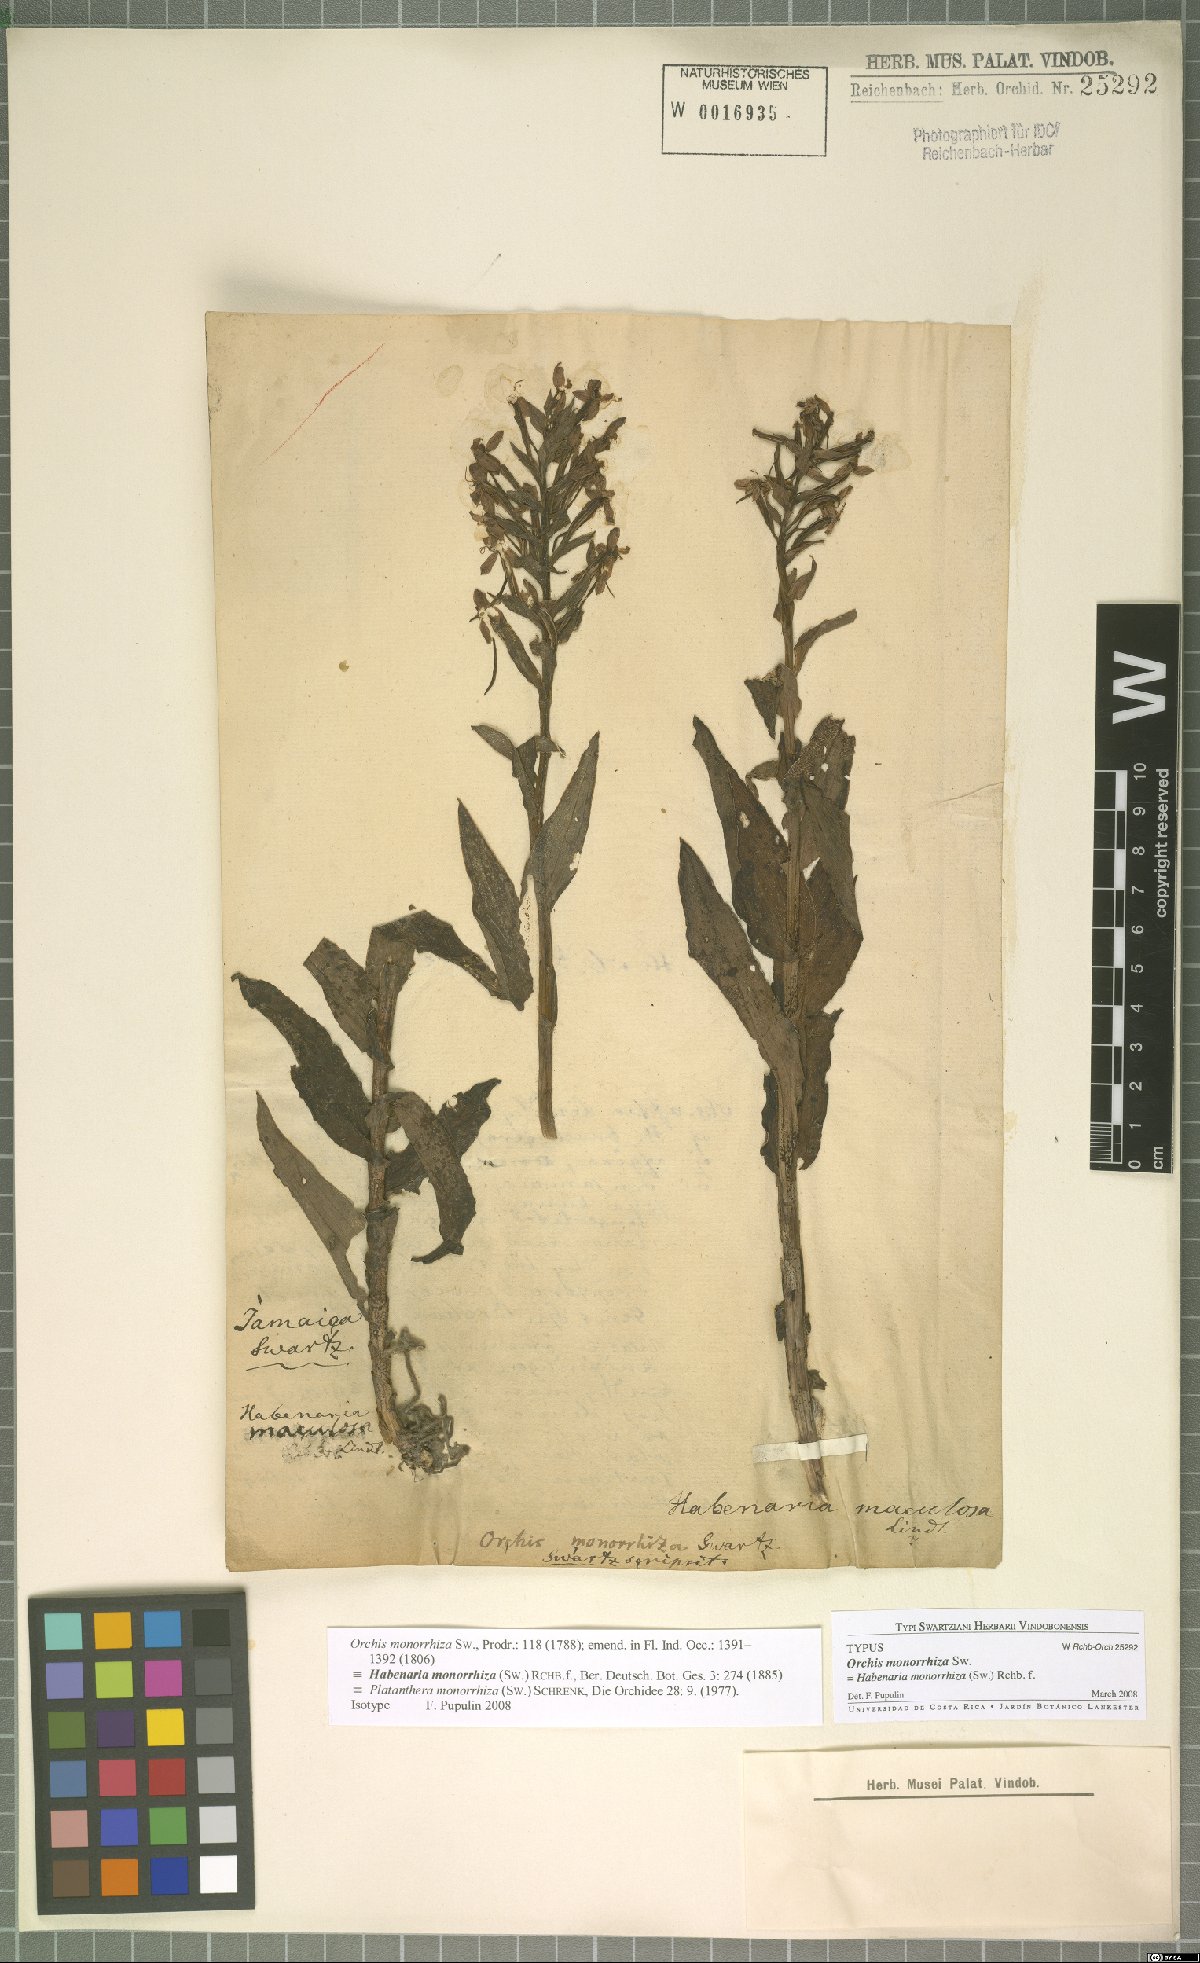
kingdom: Plantae
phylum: Tracheophyta
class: Liliopsida
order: Asparagales
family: Orchidaceae
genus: Habenaria
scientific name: Habenaria monorrhiza
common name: Tropical bog orchid
